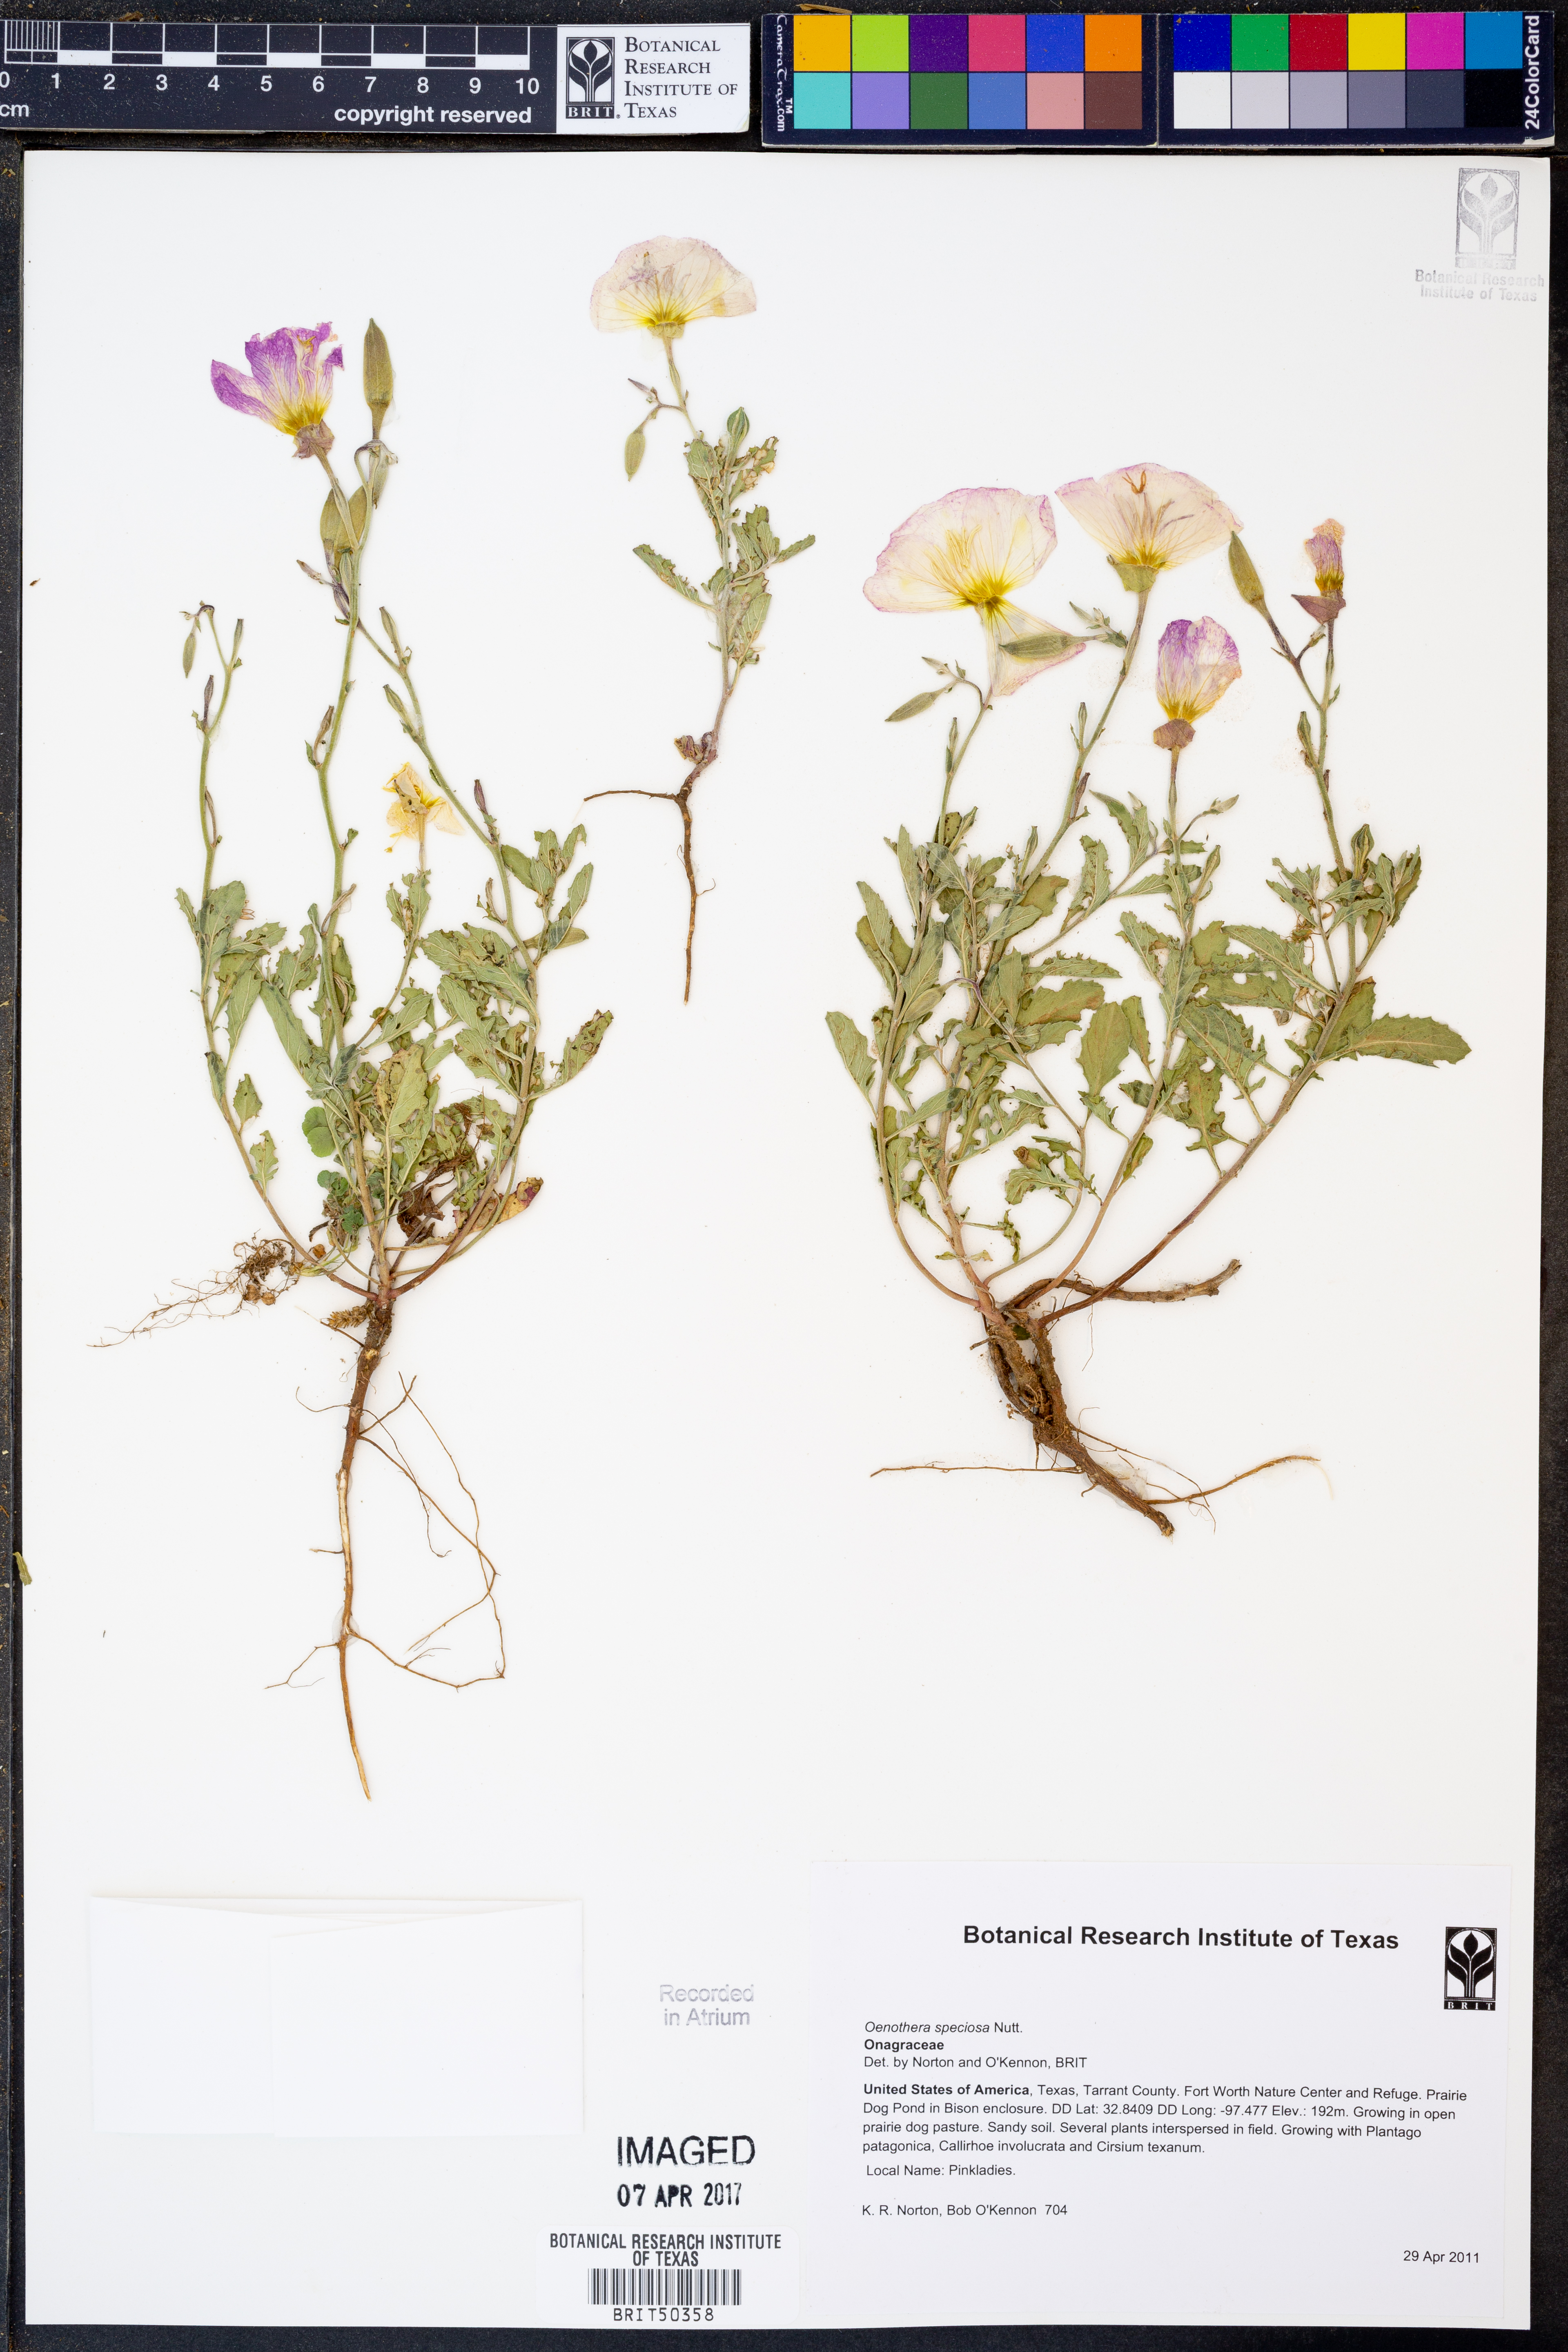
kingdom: Plantae
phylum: Tracheophyta
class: Magnoliopsida
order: Myrtales
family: Onagraceae
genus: Oenothera
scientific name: Oenothera speciosa
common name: White evening-primrose
